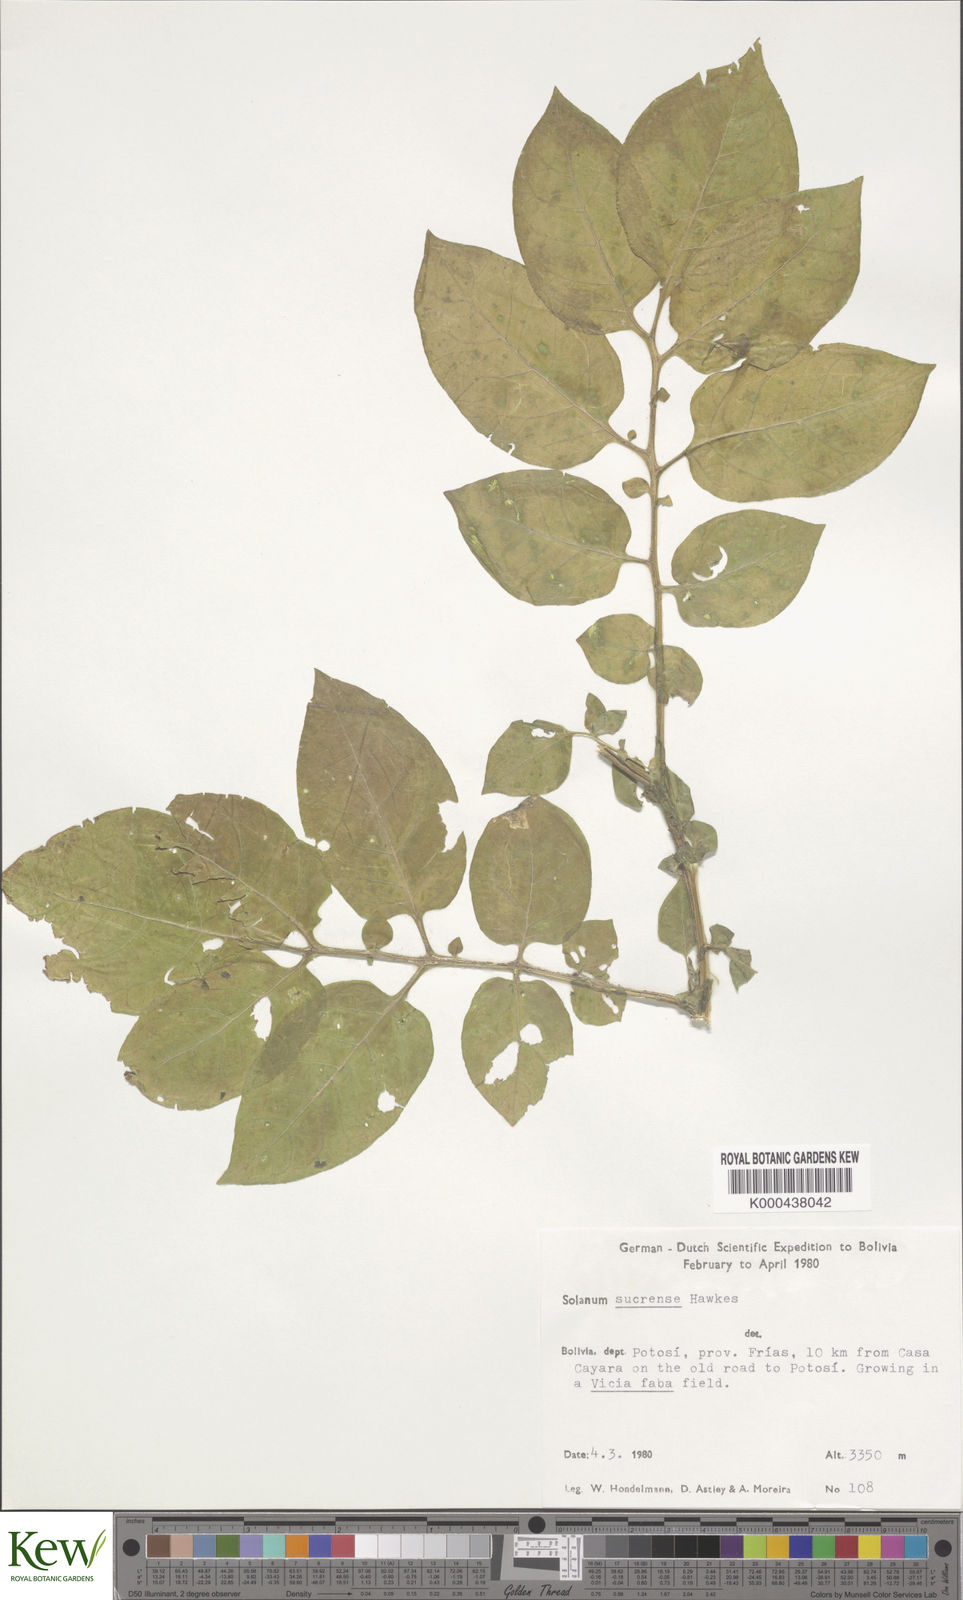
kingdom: Plantae
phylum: Tracheophyta
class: Magnoliopsida
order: Solanales
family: Solanaceae
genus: Solanum
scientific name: Solanum brevicaule
